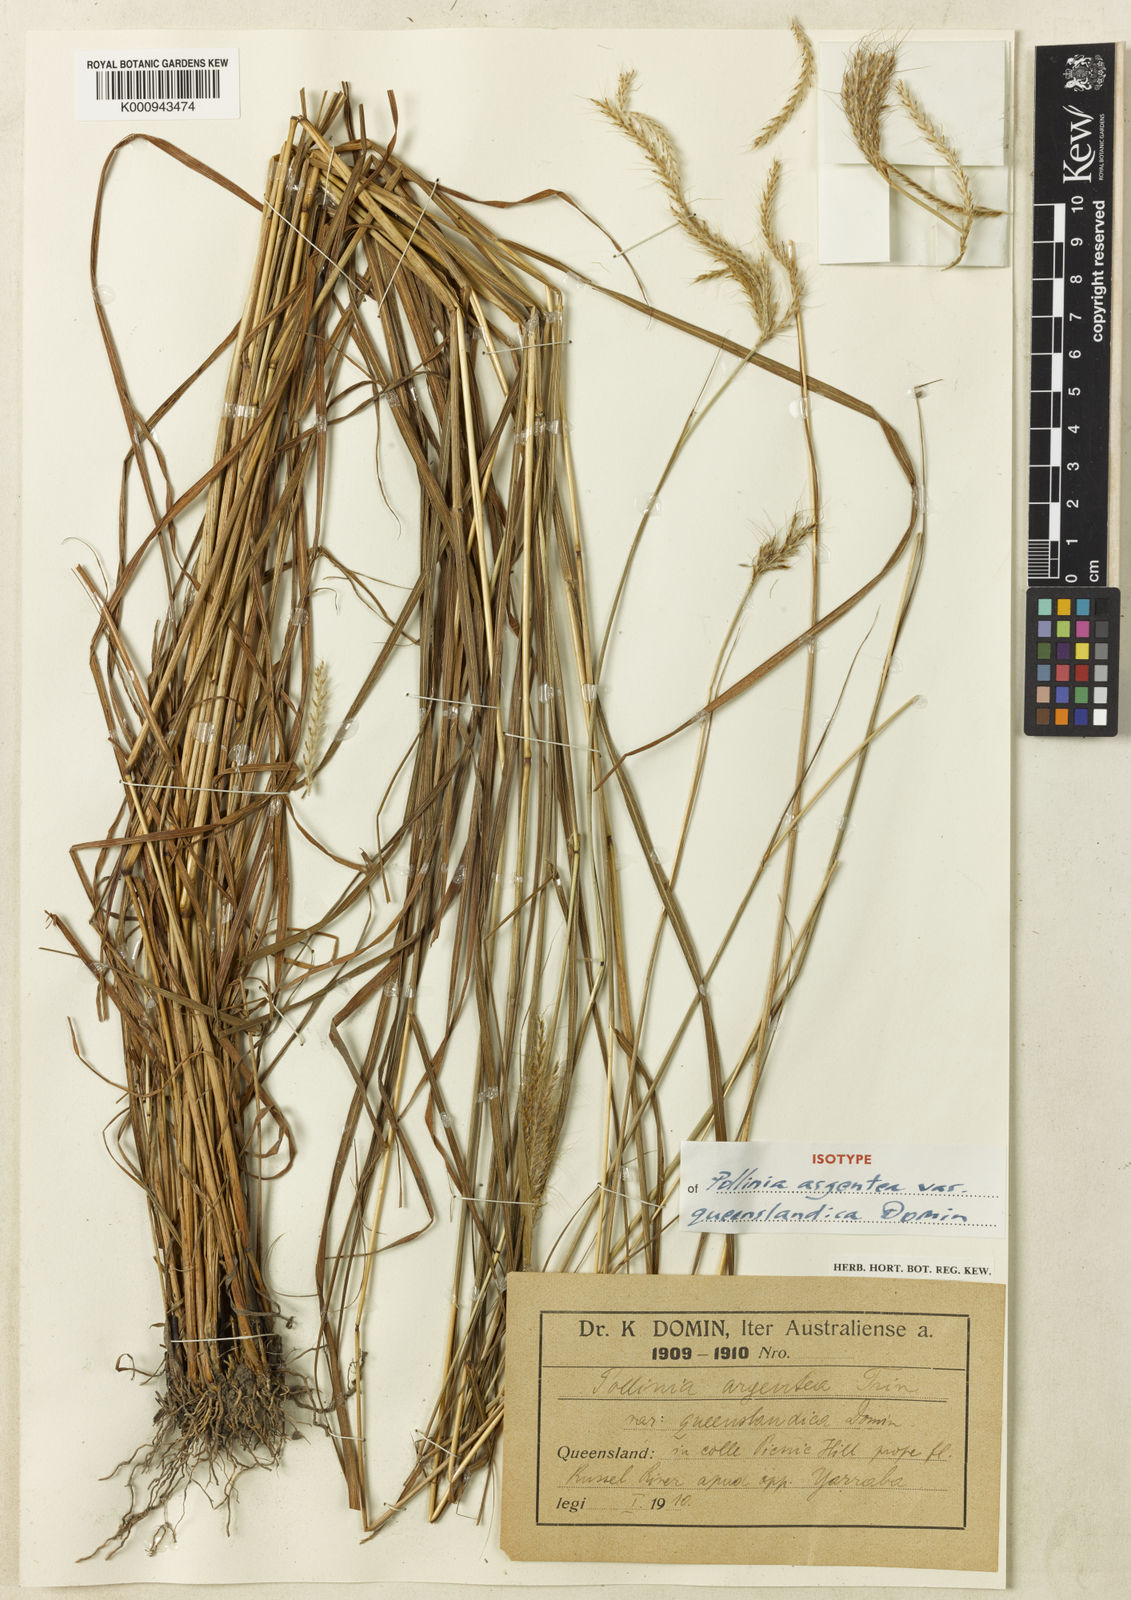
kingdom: Plantae
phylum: Tracheophyta
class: Liliopsida
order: Poales
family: Poaceae
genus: Pseudopogonatherum
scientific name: Pseudopogonatherum trispicatum
